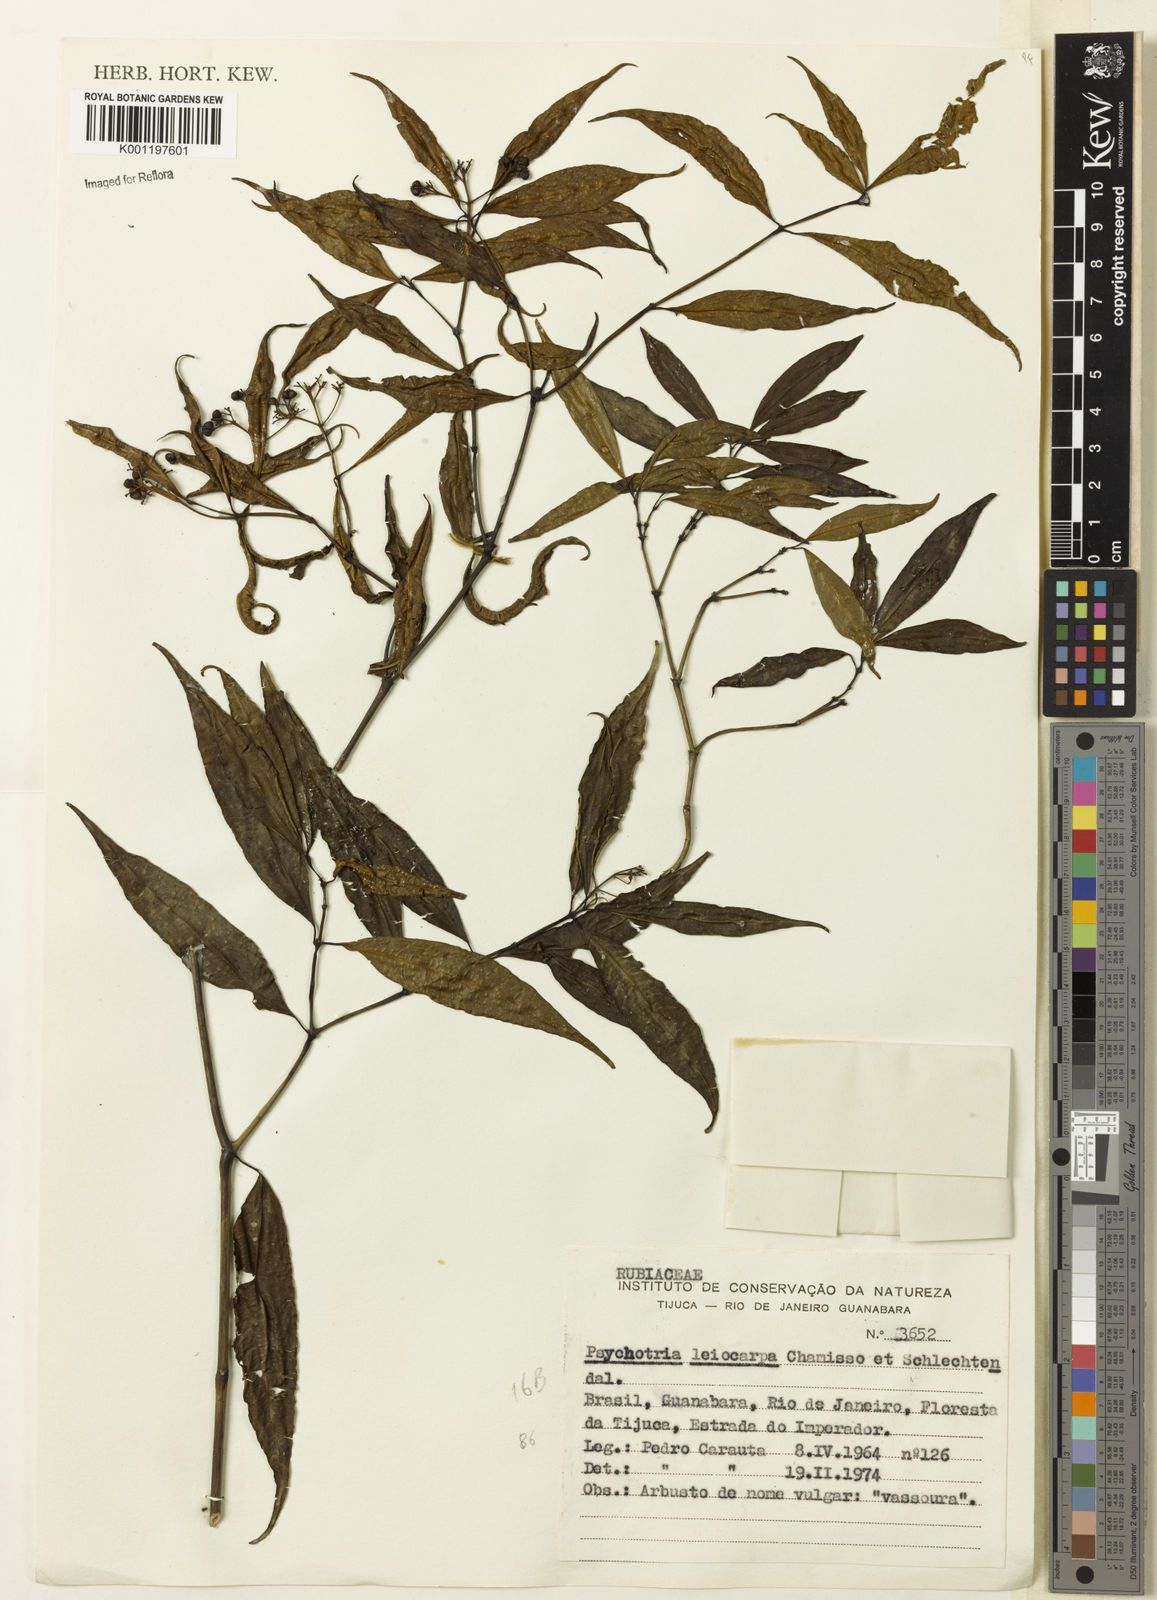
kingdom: Plantae
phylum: Tracheophyta
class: Magnoliopsida
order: Gentianales
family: Rubiaceae
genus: Psychotria
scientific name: Psychotria leiocarpa
